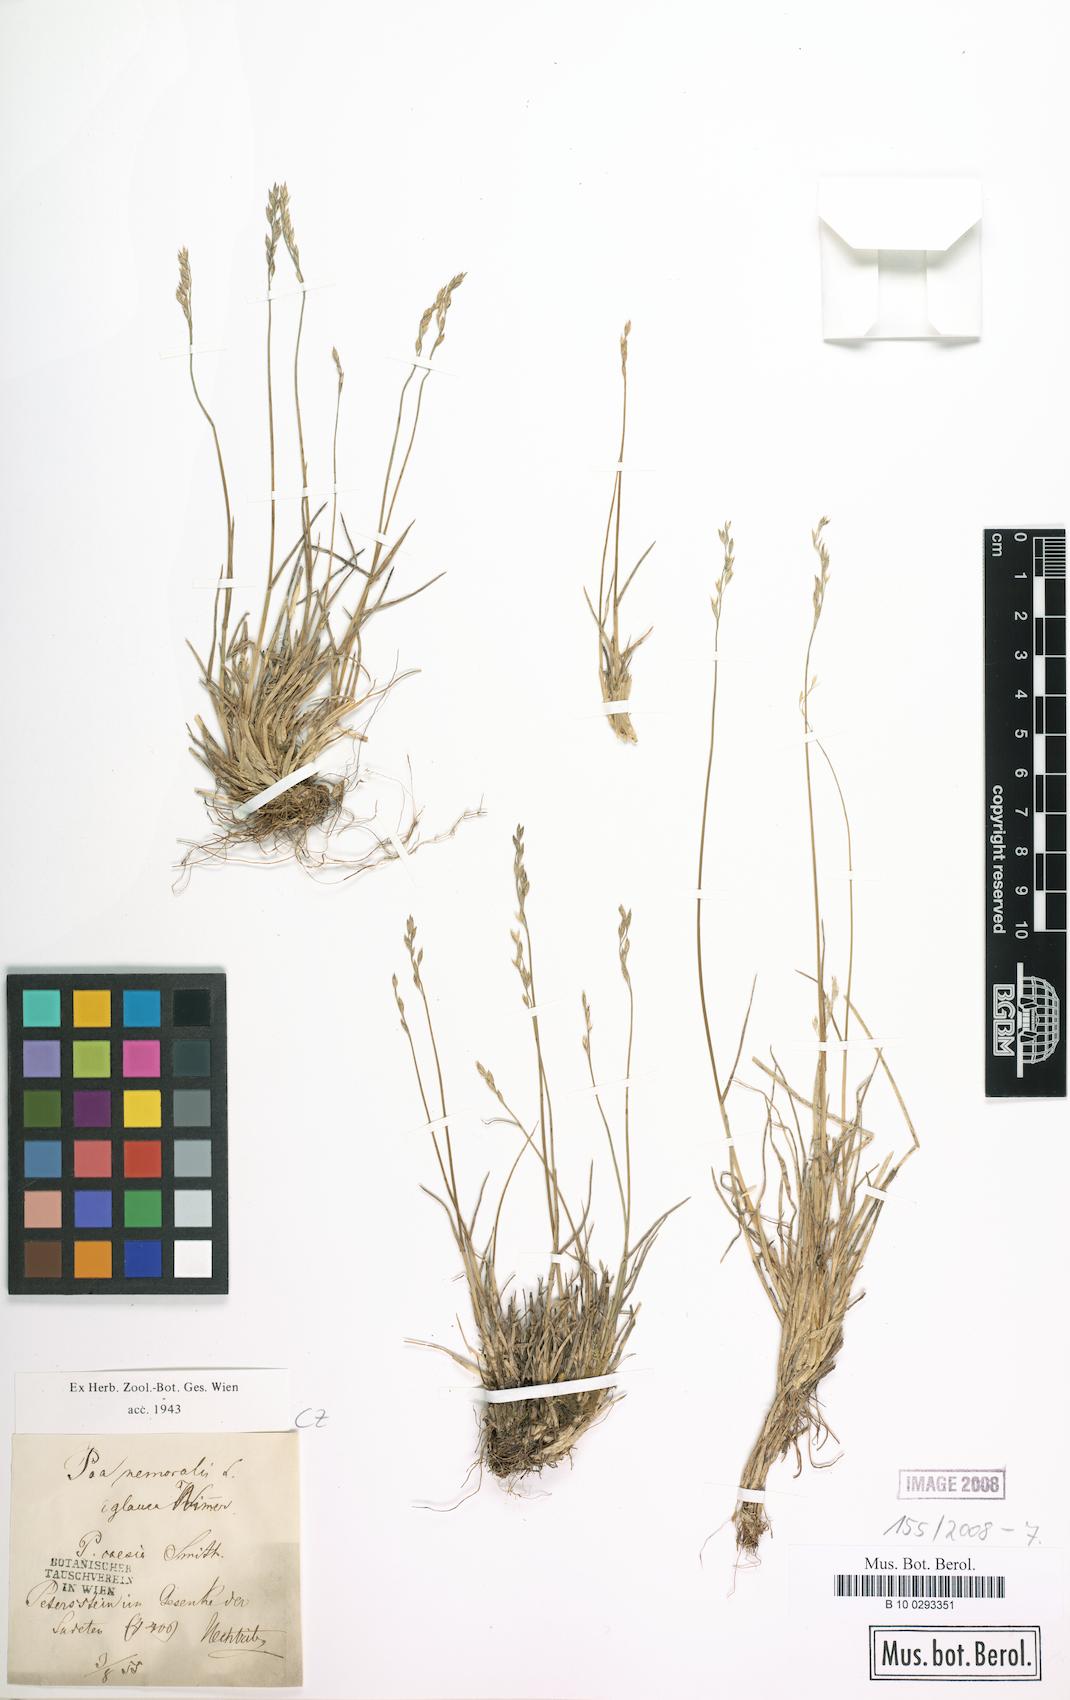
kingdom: Plantae
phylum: Tracheophyta
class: Liliopsida
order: Poales
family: Poaceae
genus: Poa
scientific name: Poa glauca
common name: Glaucous bluegrass
